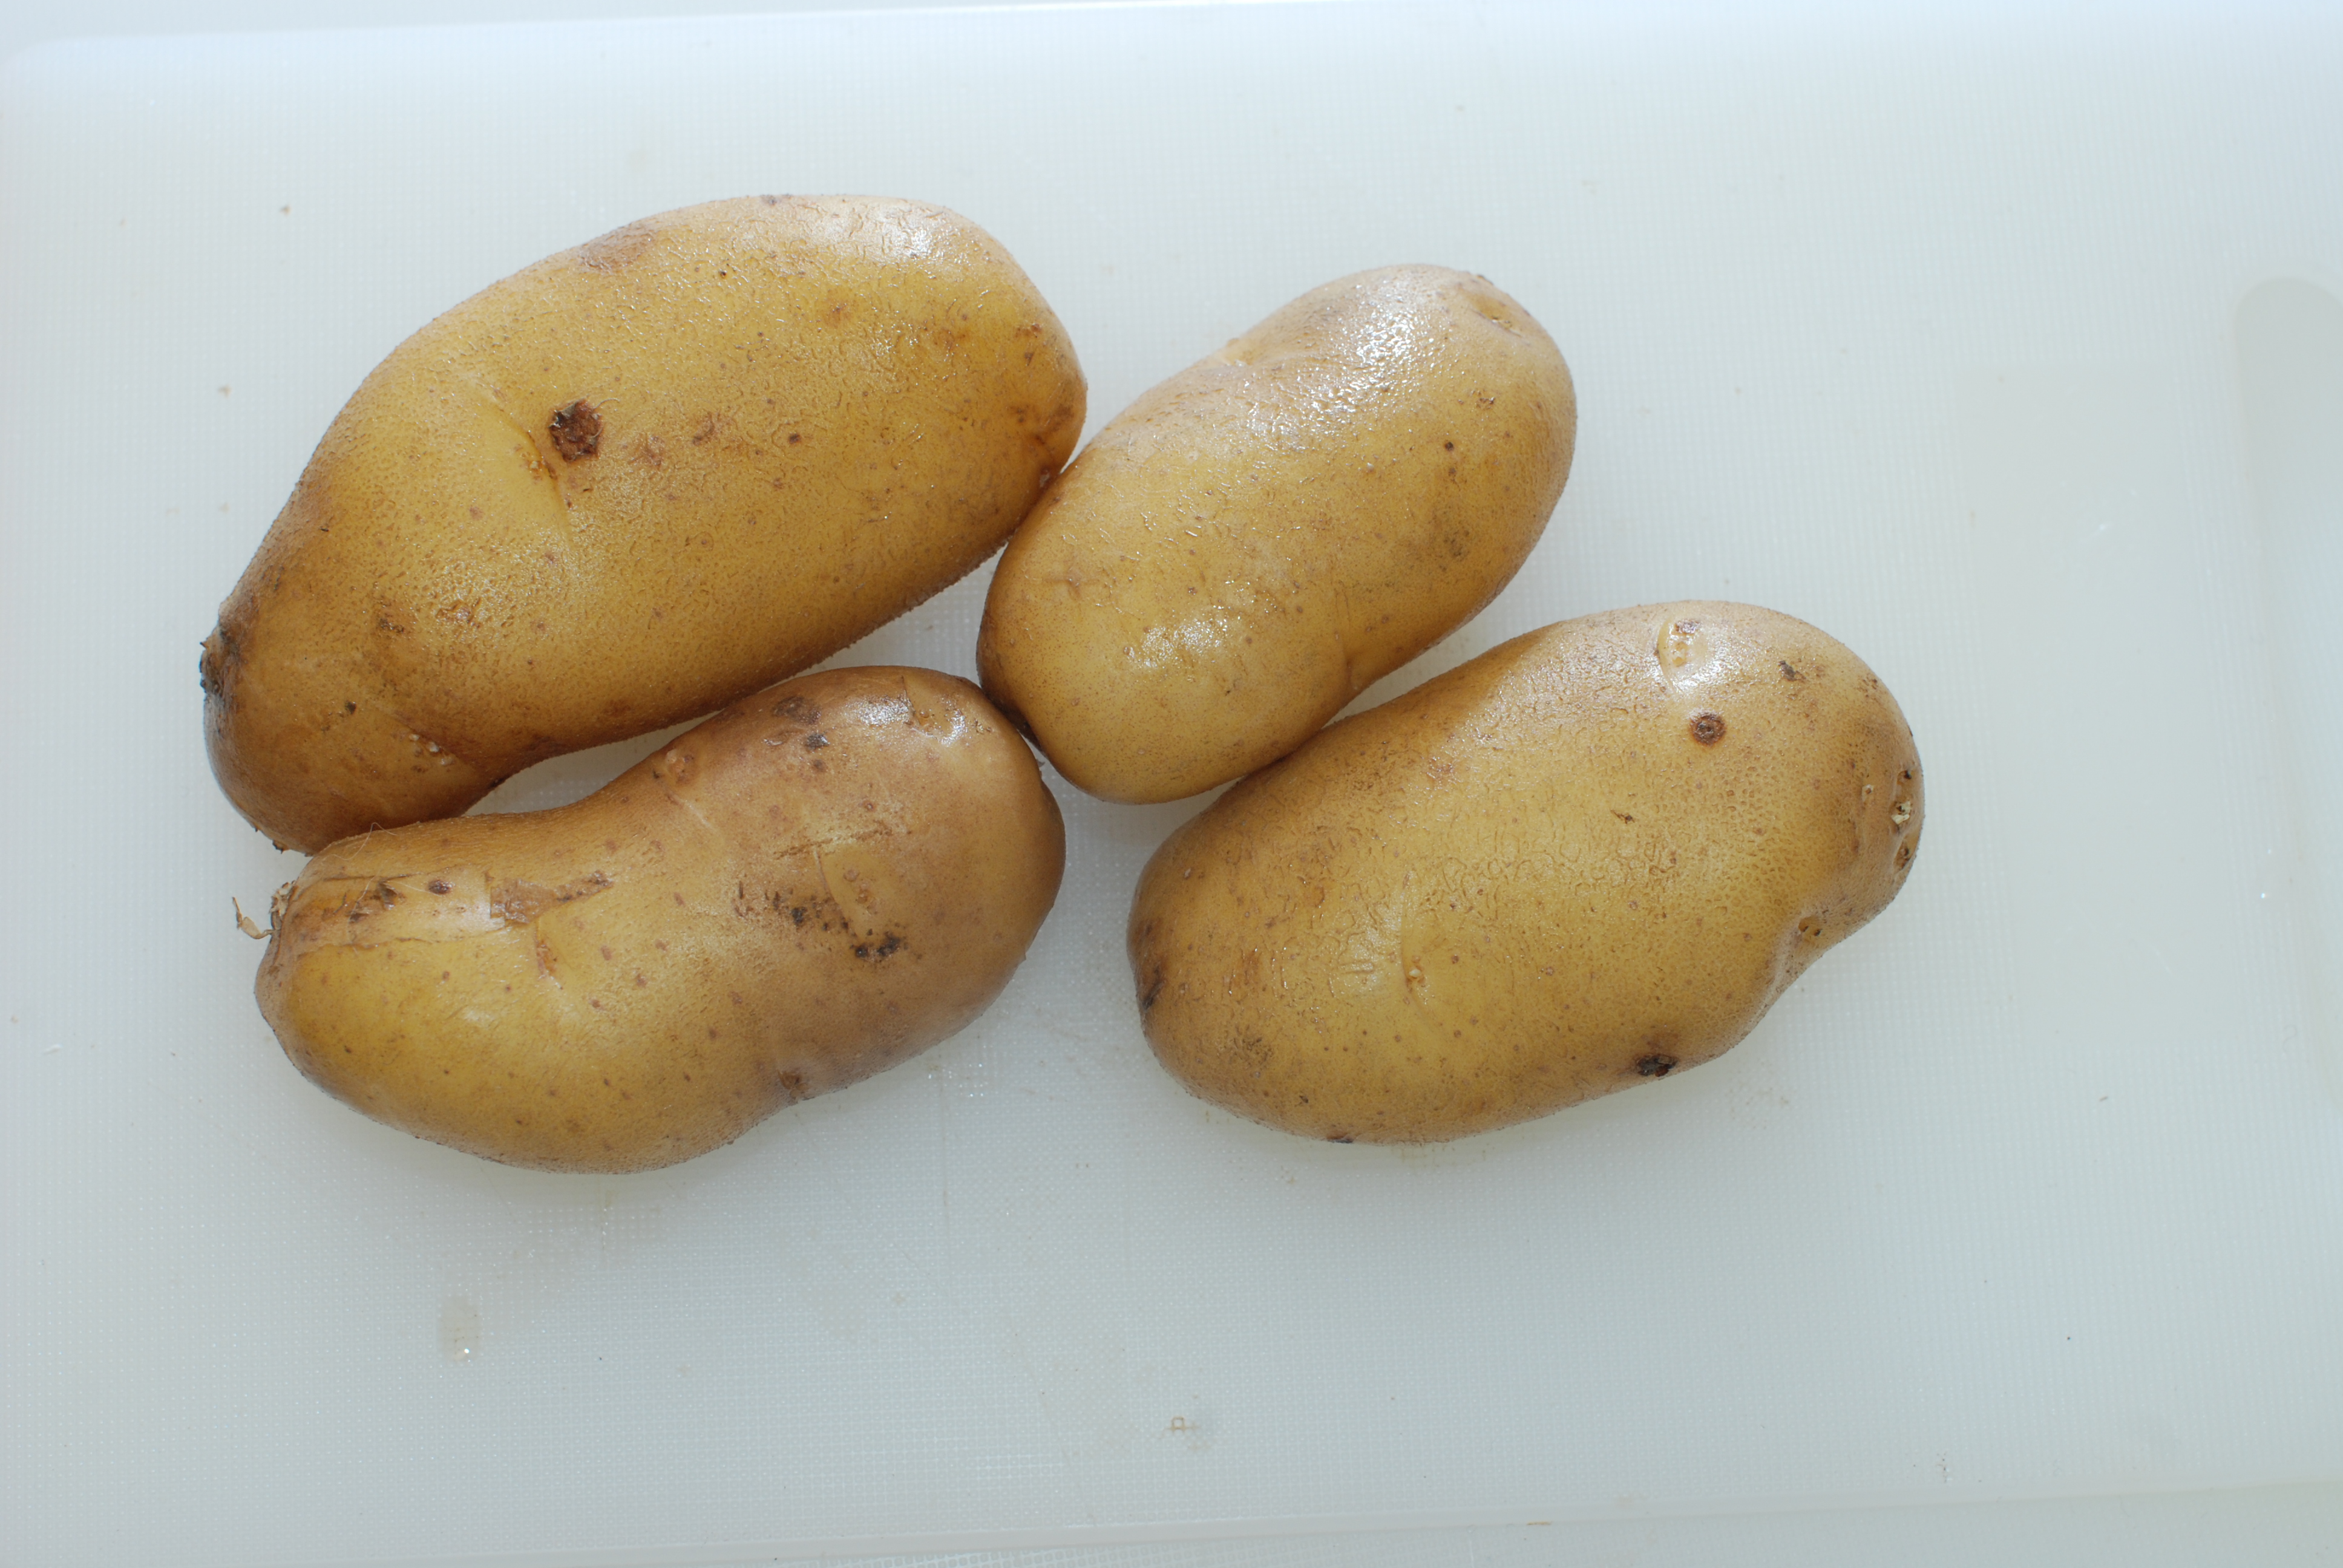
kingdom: Plantae
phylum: Tracheophyta
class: Magnoliopsida
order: Solanales
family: Solanaceae
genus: Solanum
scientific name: Solanum tuberosum
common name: Potato
